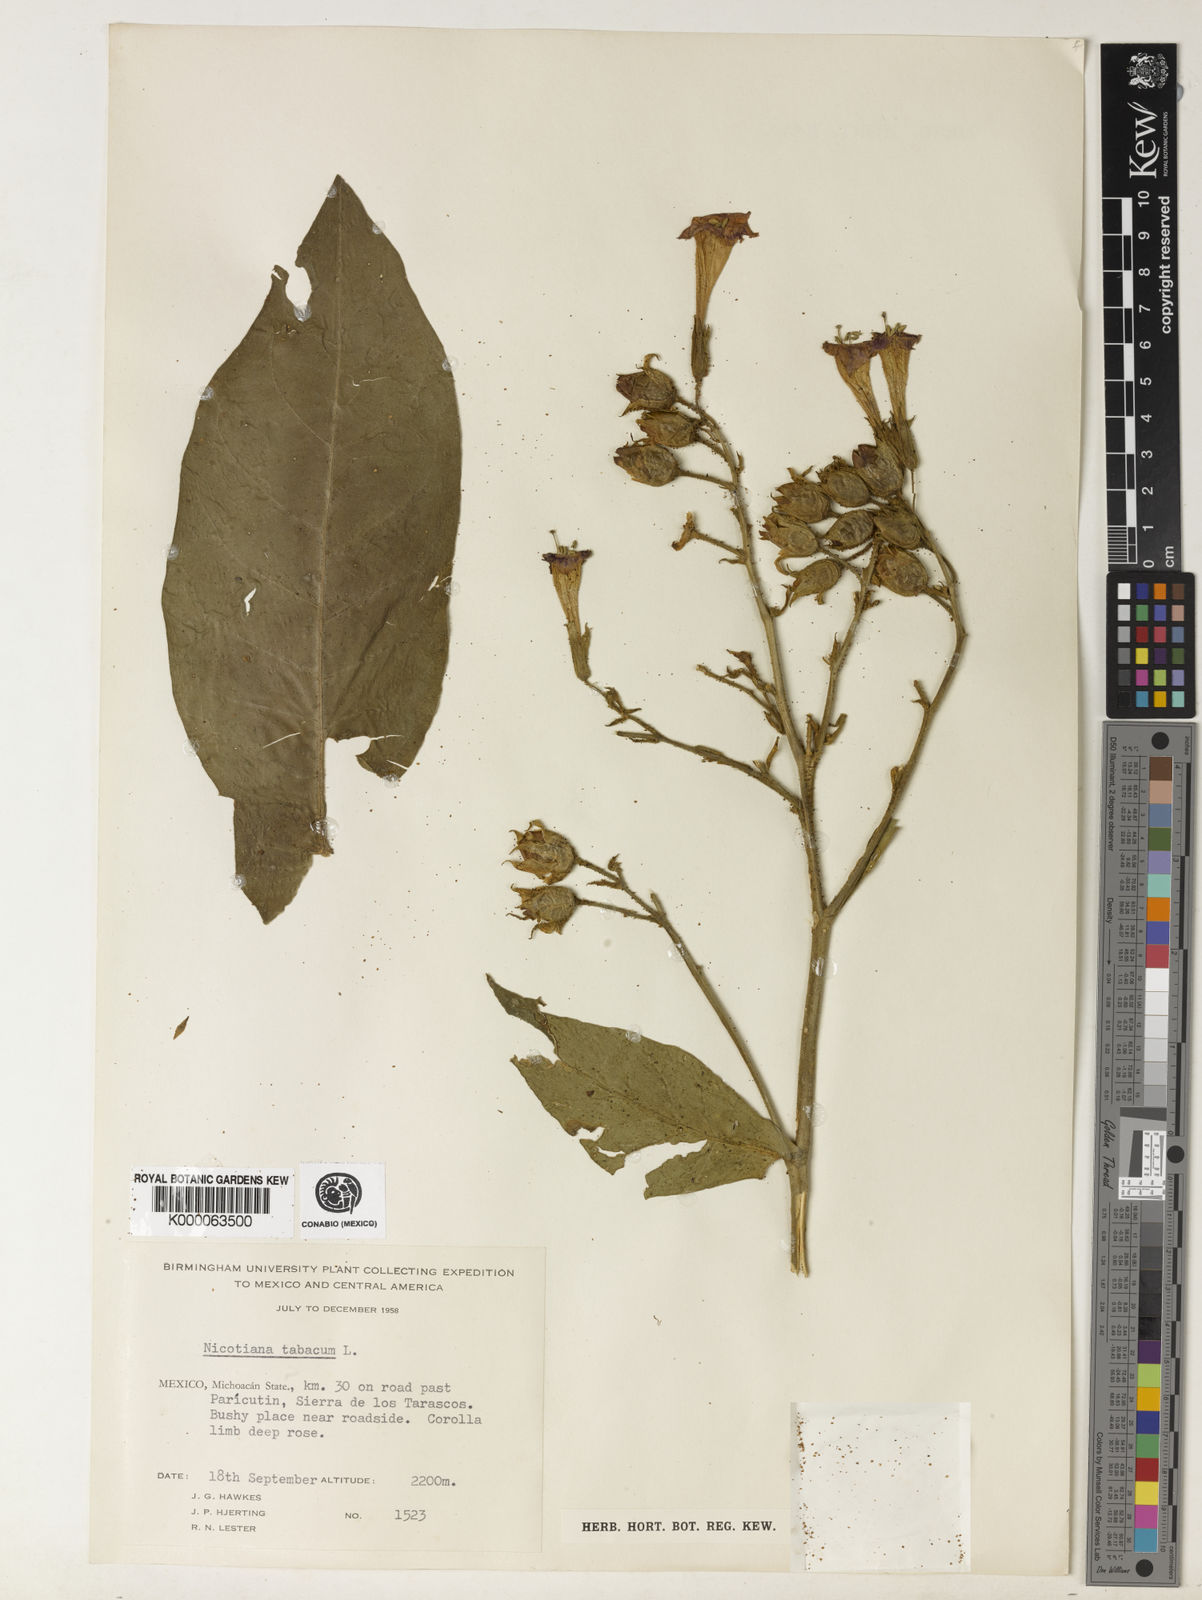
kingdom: Plantae
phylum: Tracheophyta
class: Magnoliopsida
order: Solanales
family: Solanaceae
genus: Nicotiana
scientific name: Nicotiana tabacum
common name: Tobacco
